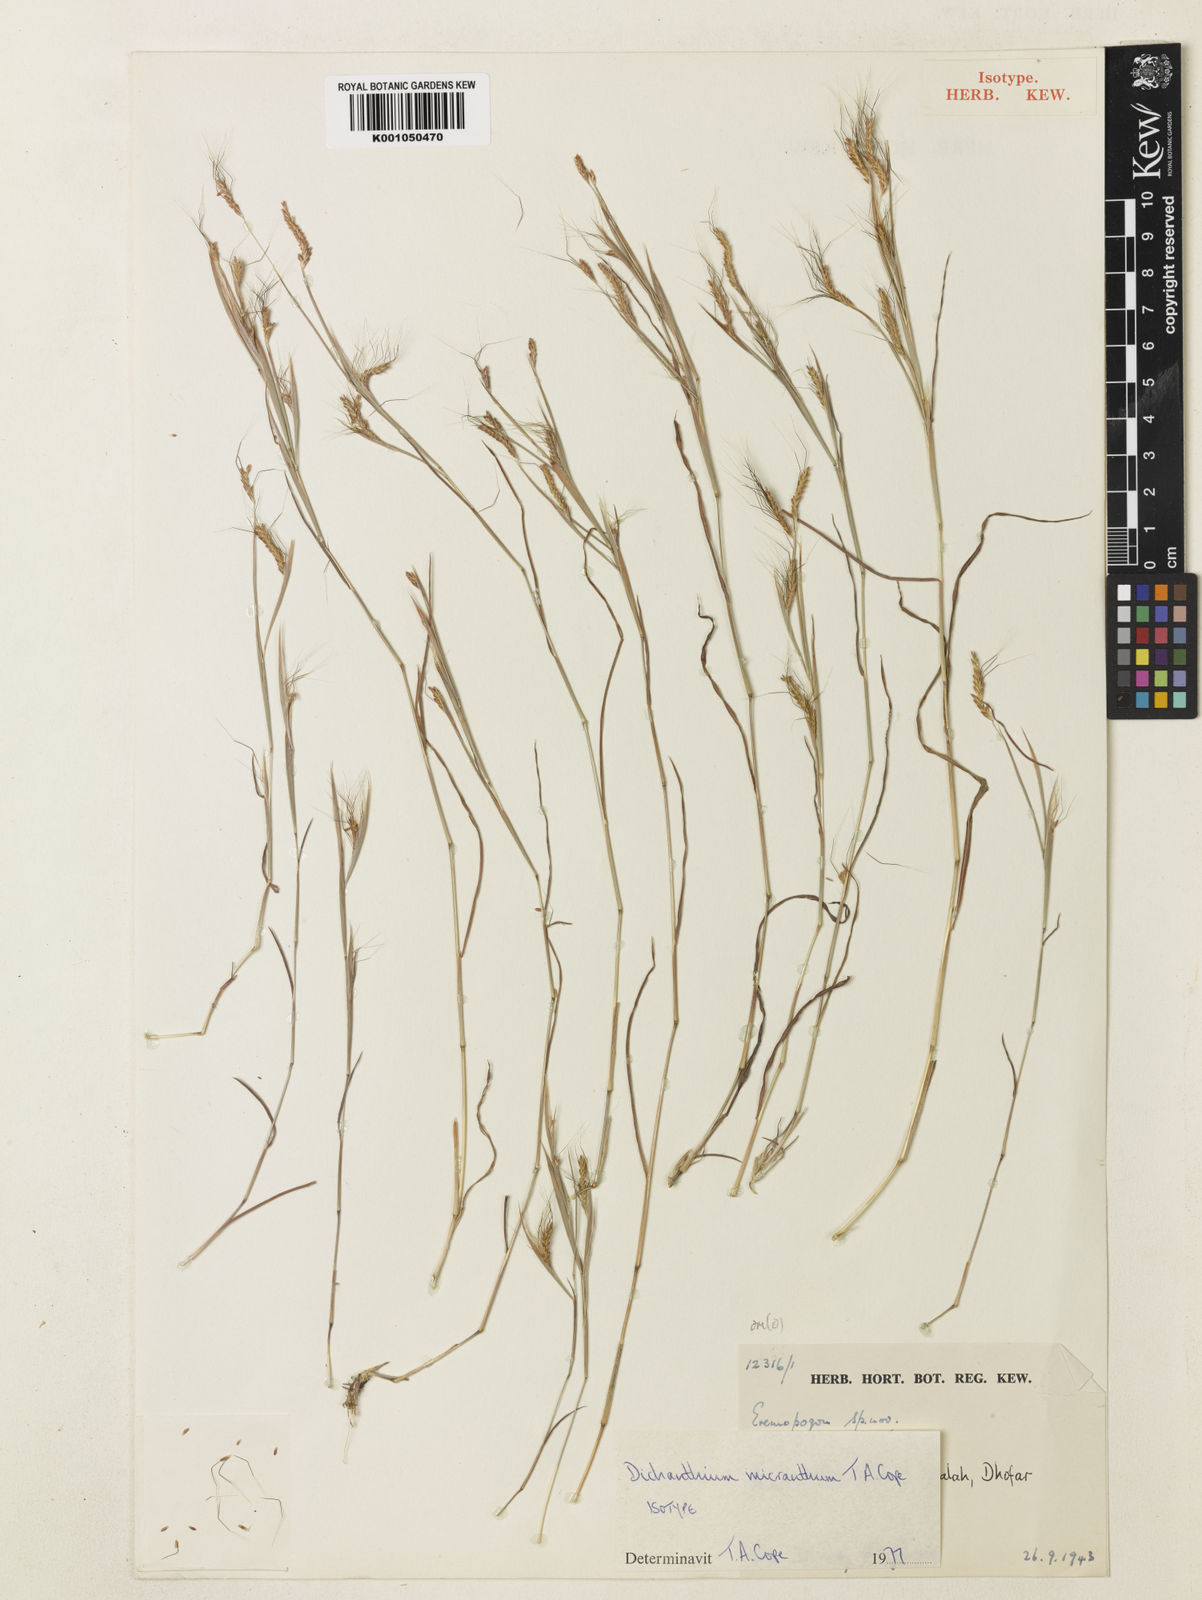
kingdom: Plantae
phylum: Tracheophyta
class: Liliopsida
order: Poales
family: Poaceae
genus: Dichanthium
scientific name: Dichanthium micranthum
